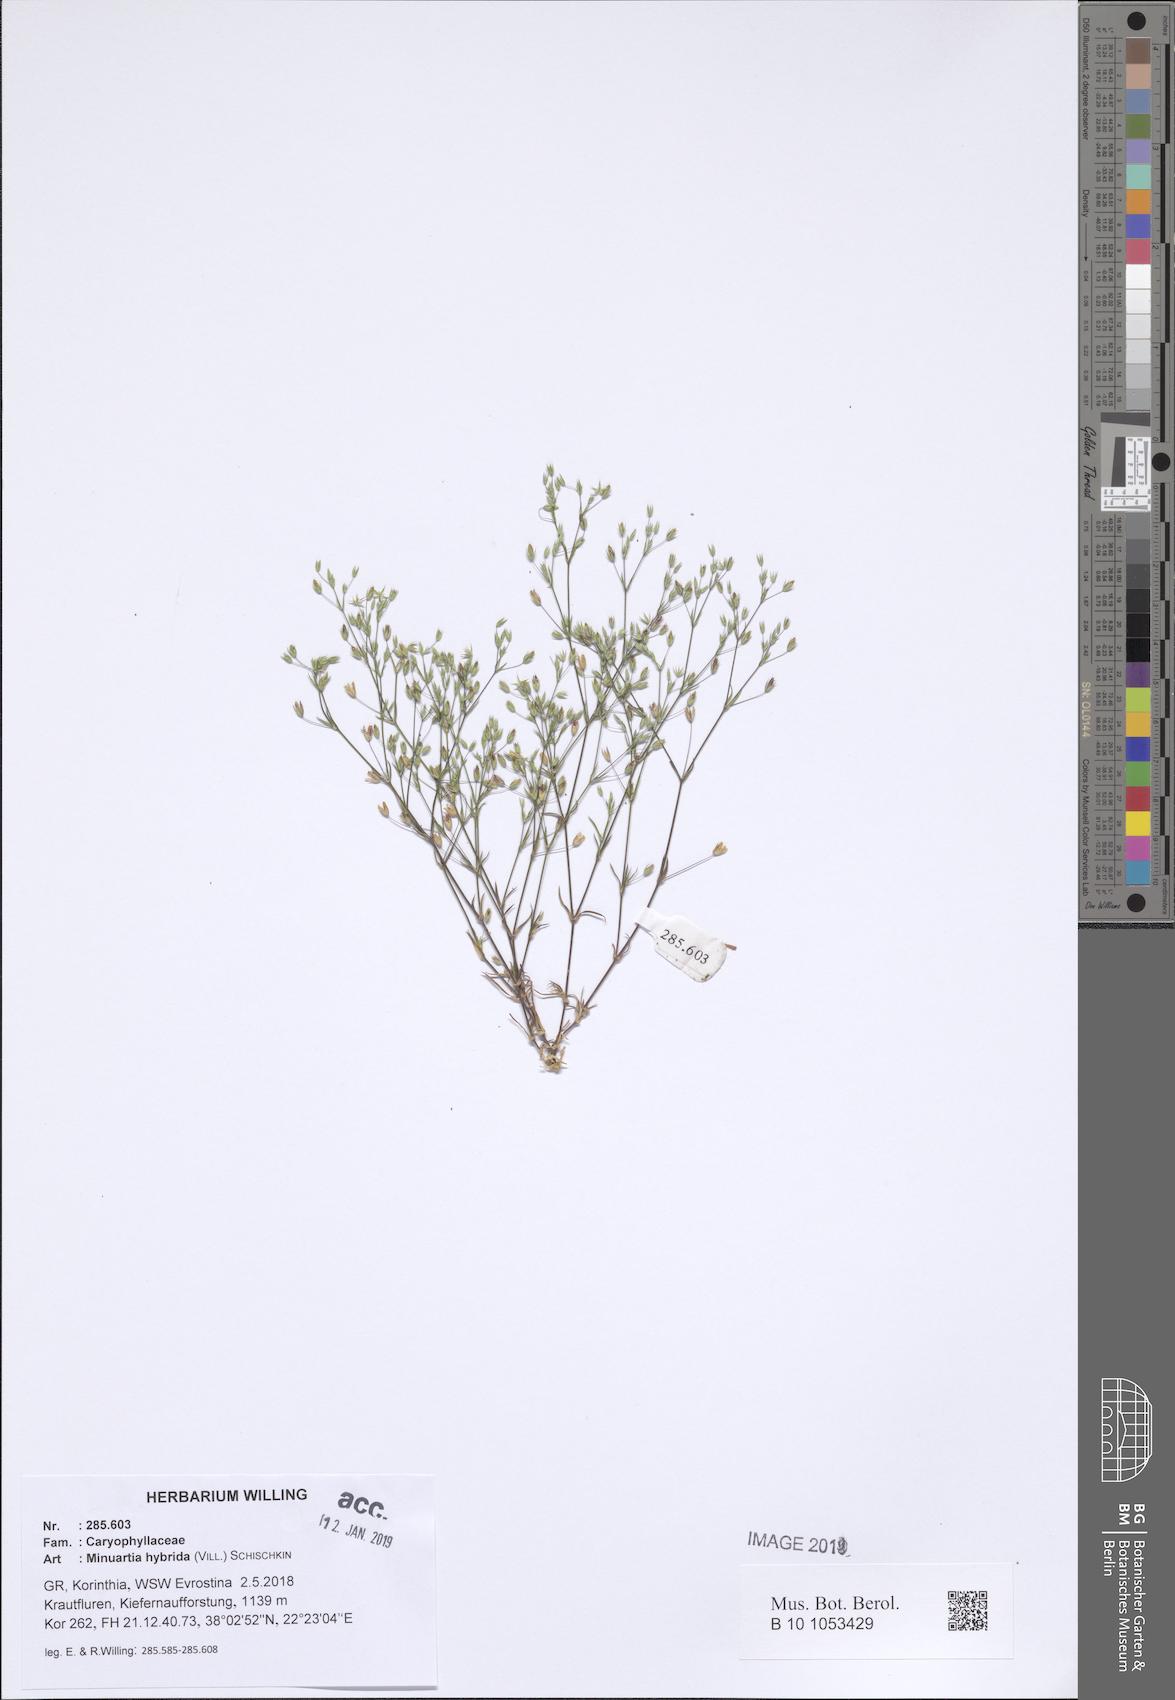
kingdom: Plantae
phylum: Tracheophyta
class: Magnoliopsida
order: Caryophyllales
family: Caryophyllaceae
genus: Sabulina
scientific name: Sabulina tenuifolia
